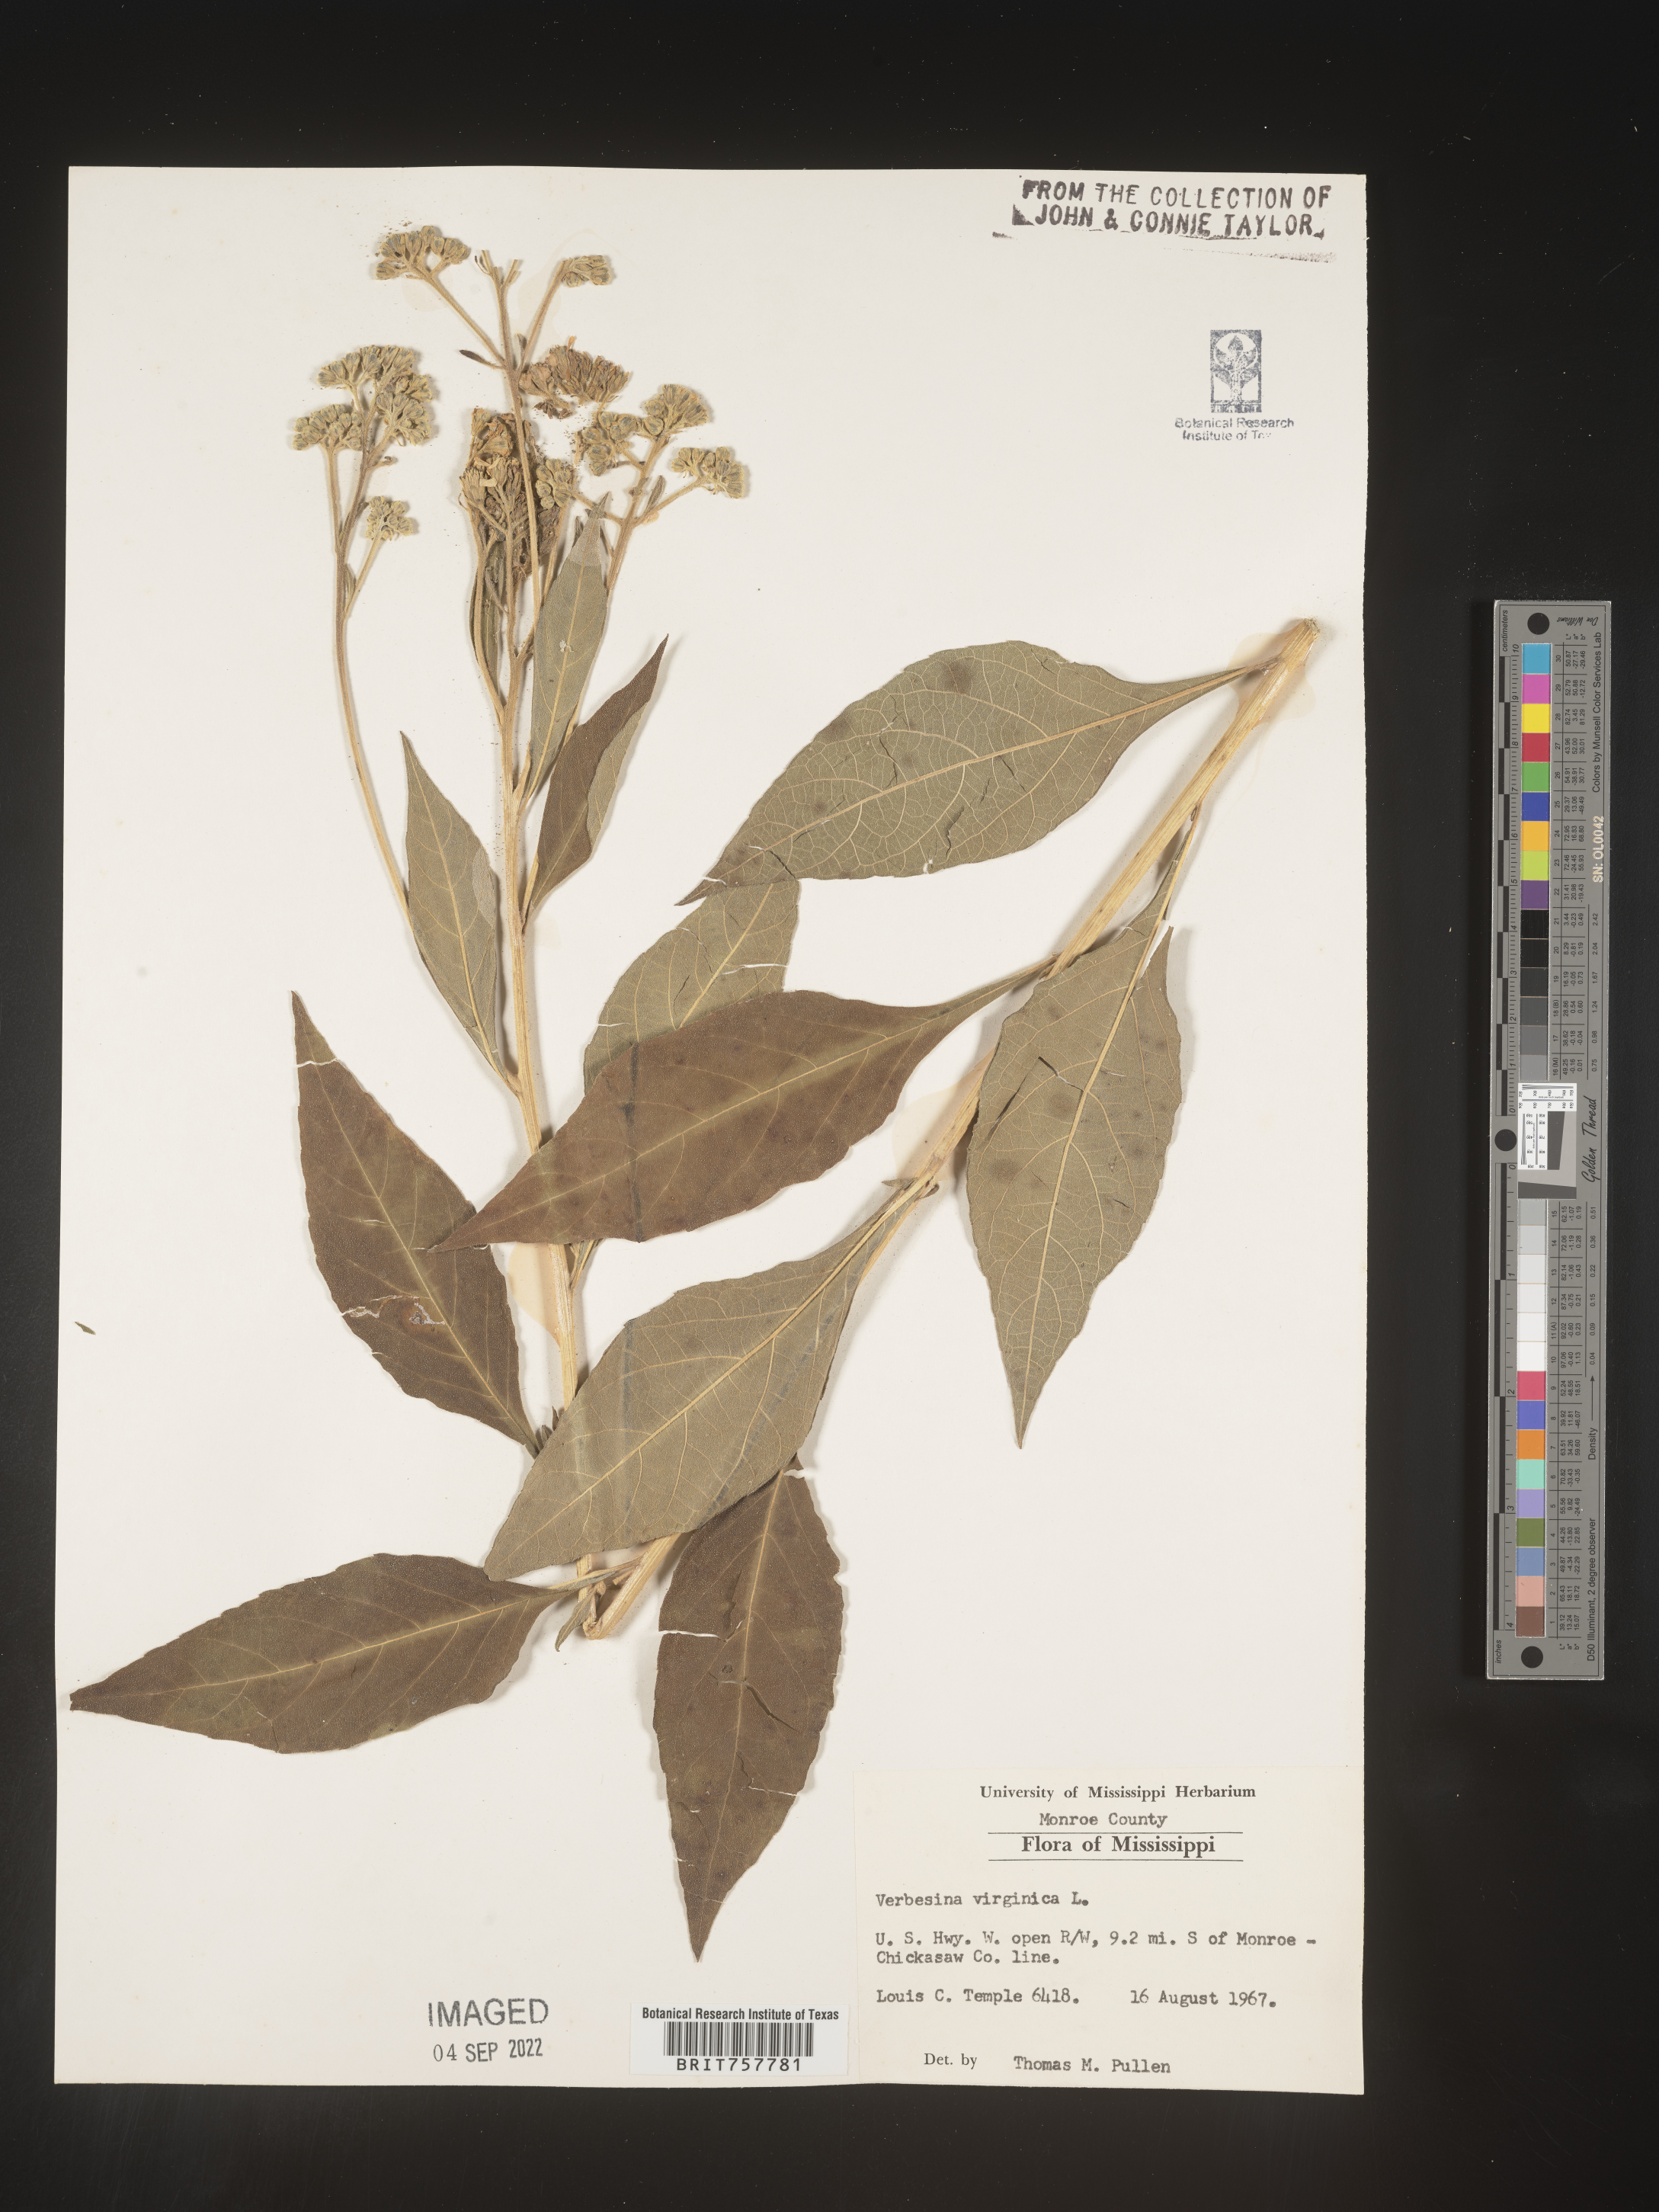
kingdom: Plantae
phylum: Tracheophyta
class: Magnoliopsida
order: Asterales
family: Asteraceae
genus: Verbesina
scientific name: Verbesina virginica
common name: Frostweed
